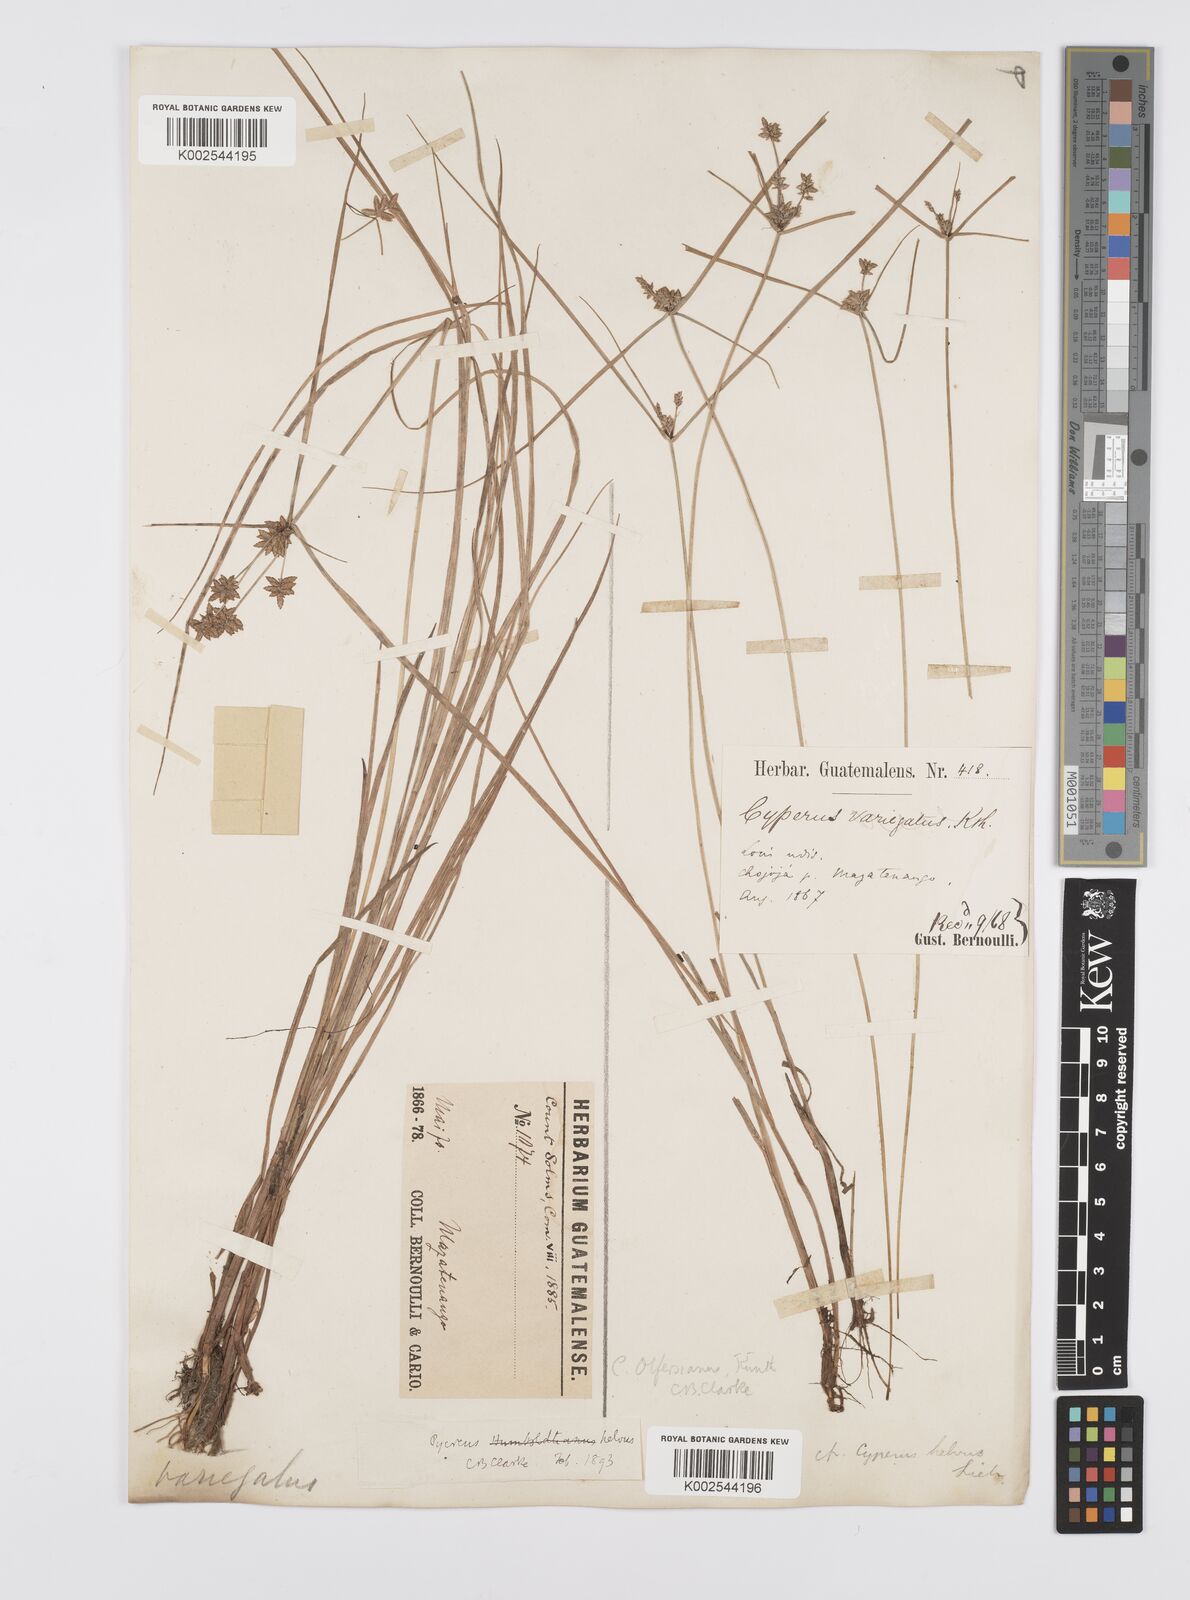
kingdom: Plantae
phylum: Tracheophyta
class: Liliopsida
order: Poales
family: Cyperaceae
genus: Cyperus
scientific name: Cyperus
